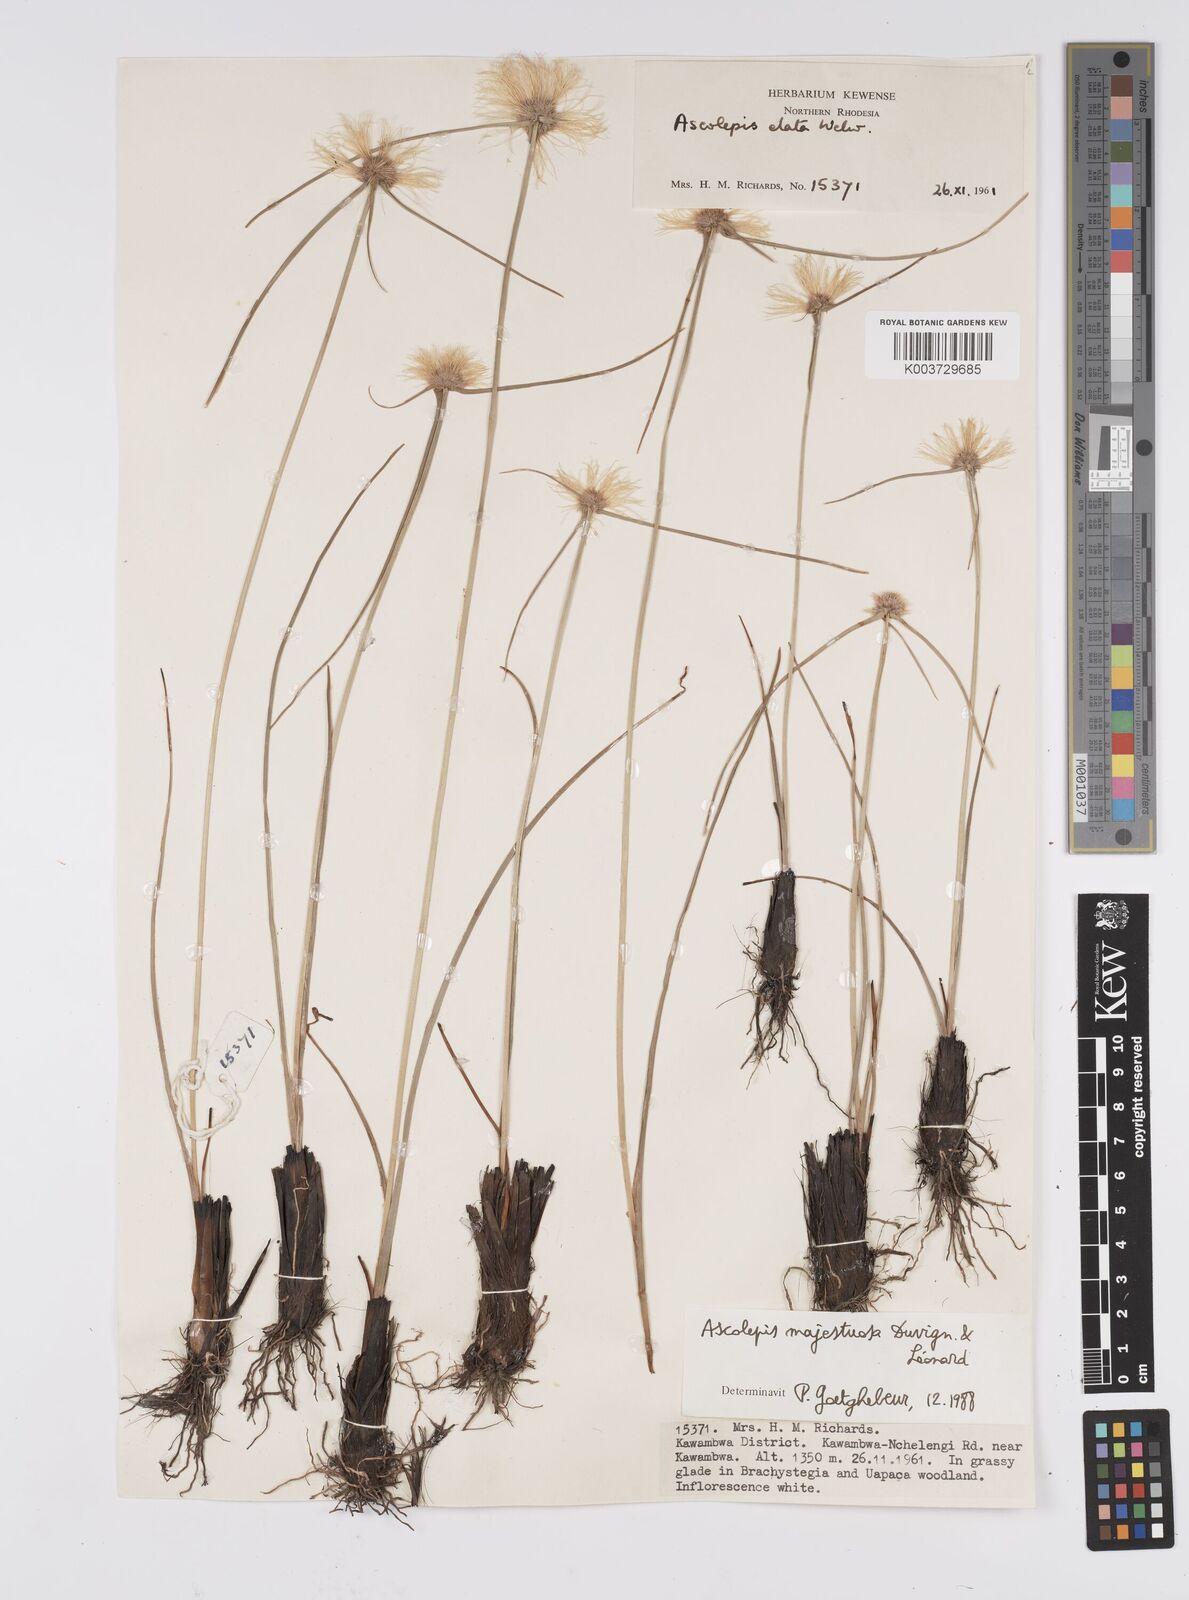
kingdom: Plantae
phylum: Tracheophyta
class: Liliopsida
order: Poales
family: Cyperaceae
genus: Cyperus
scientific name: Cyperus majestuosus
